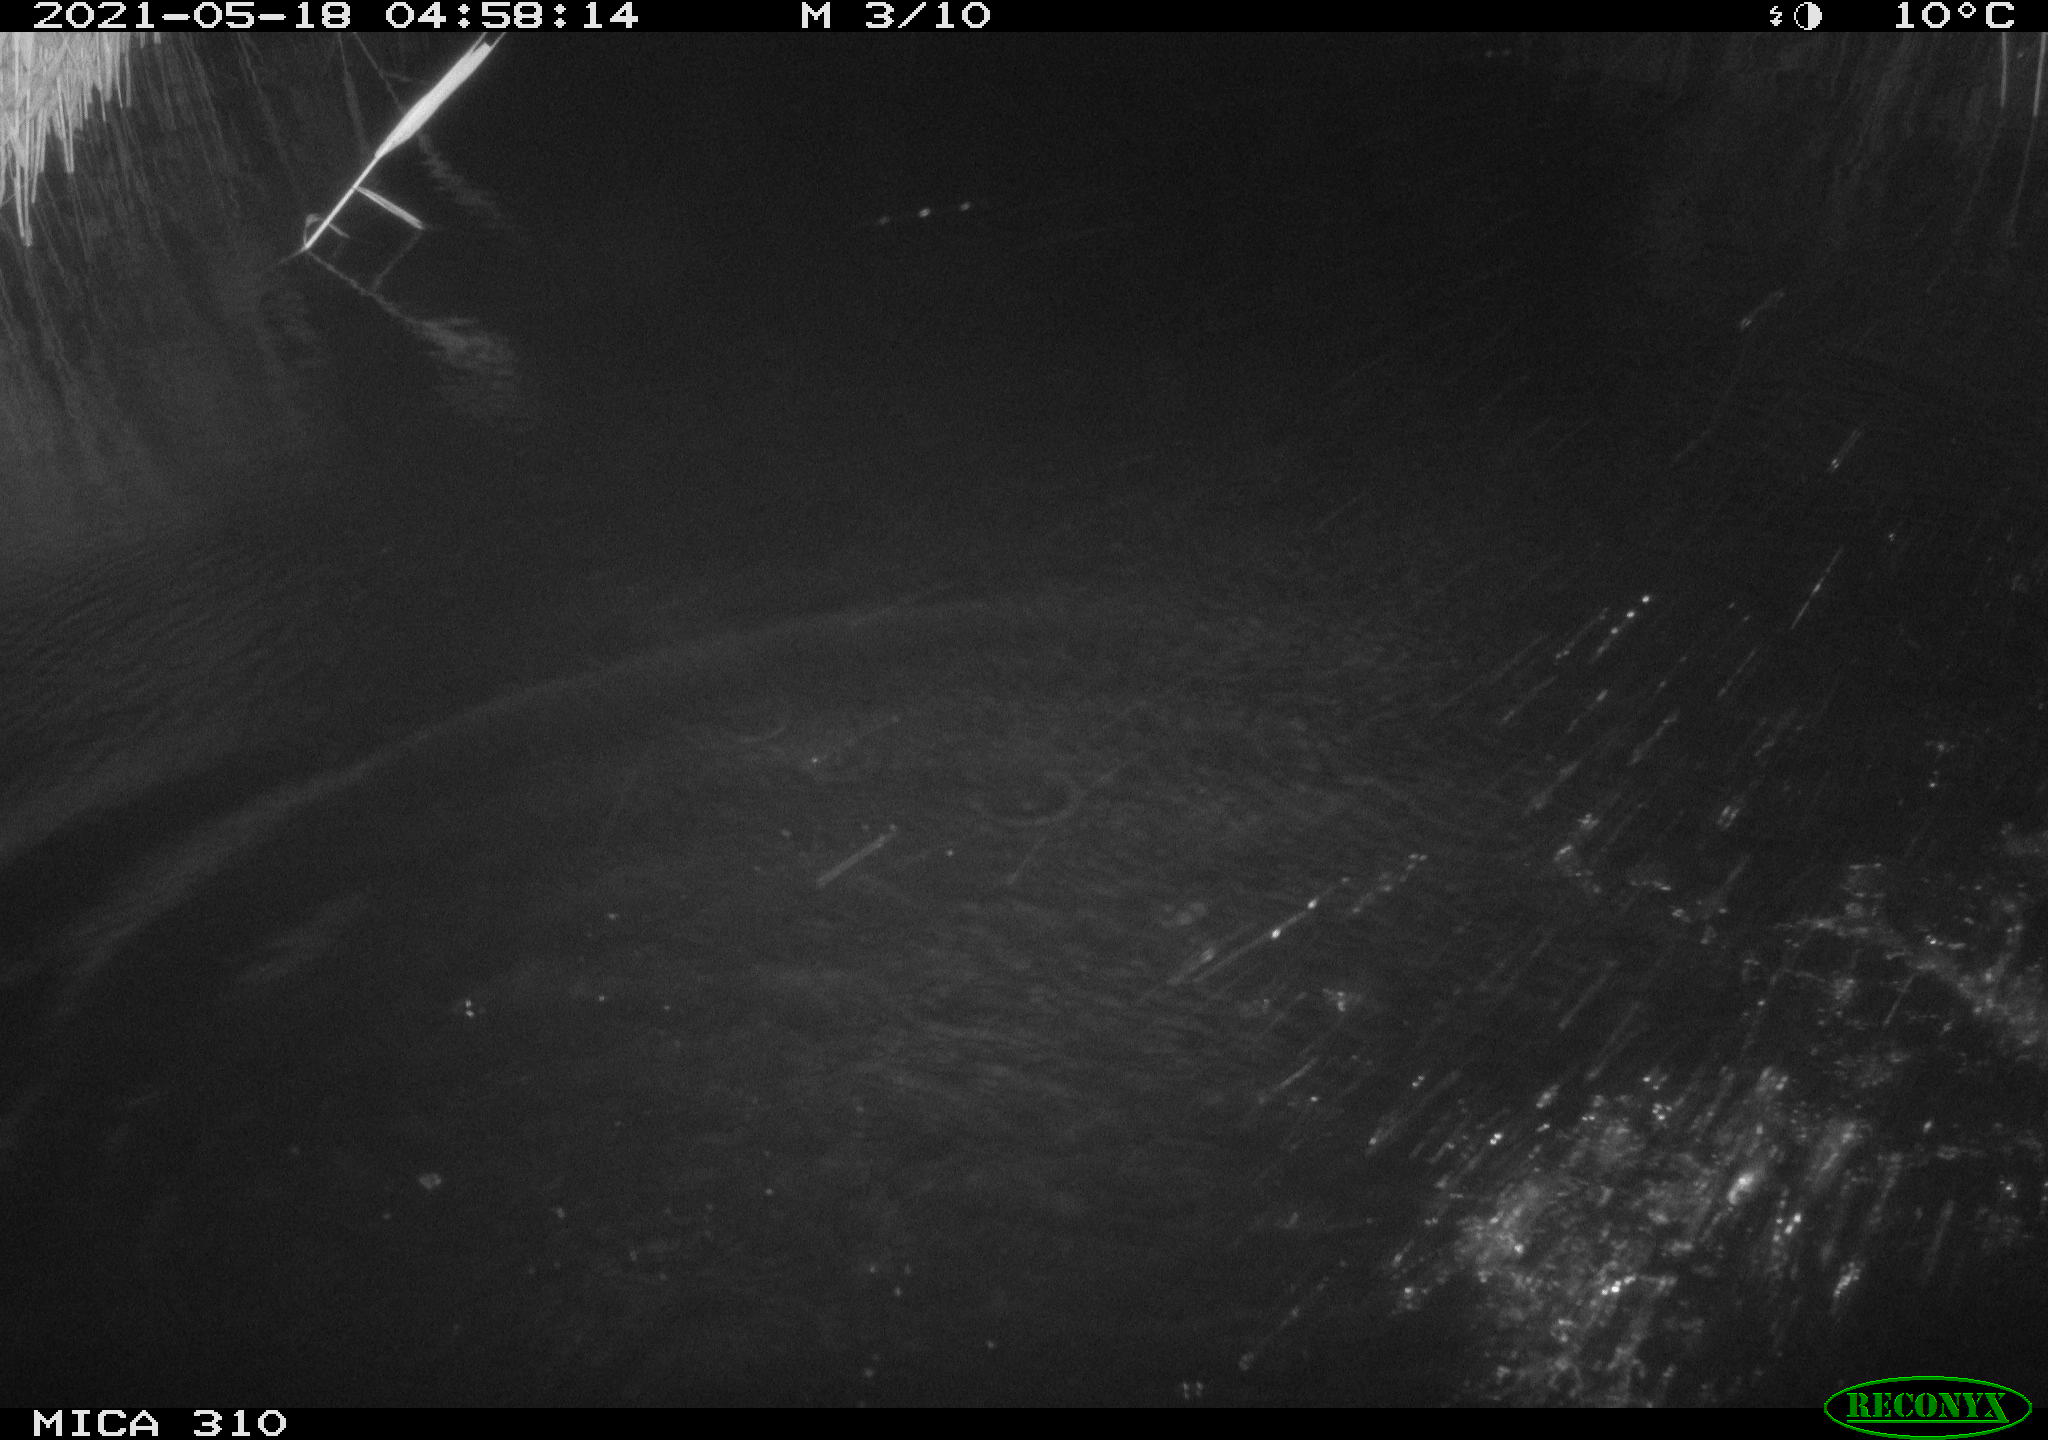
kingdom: Animalia
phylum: Chordata
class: Aves
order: Anseriformes
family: Anatidae
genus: Anas
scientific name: Anas platyrhynchos
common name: Mallard
